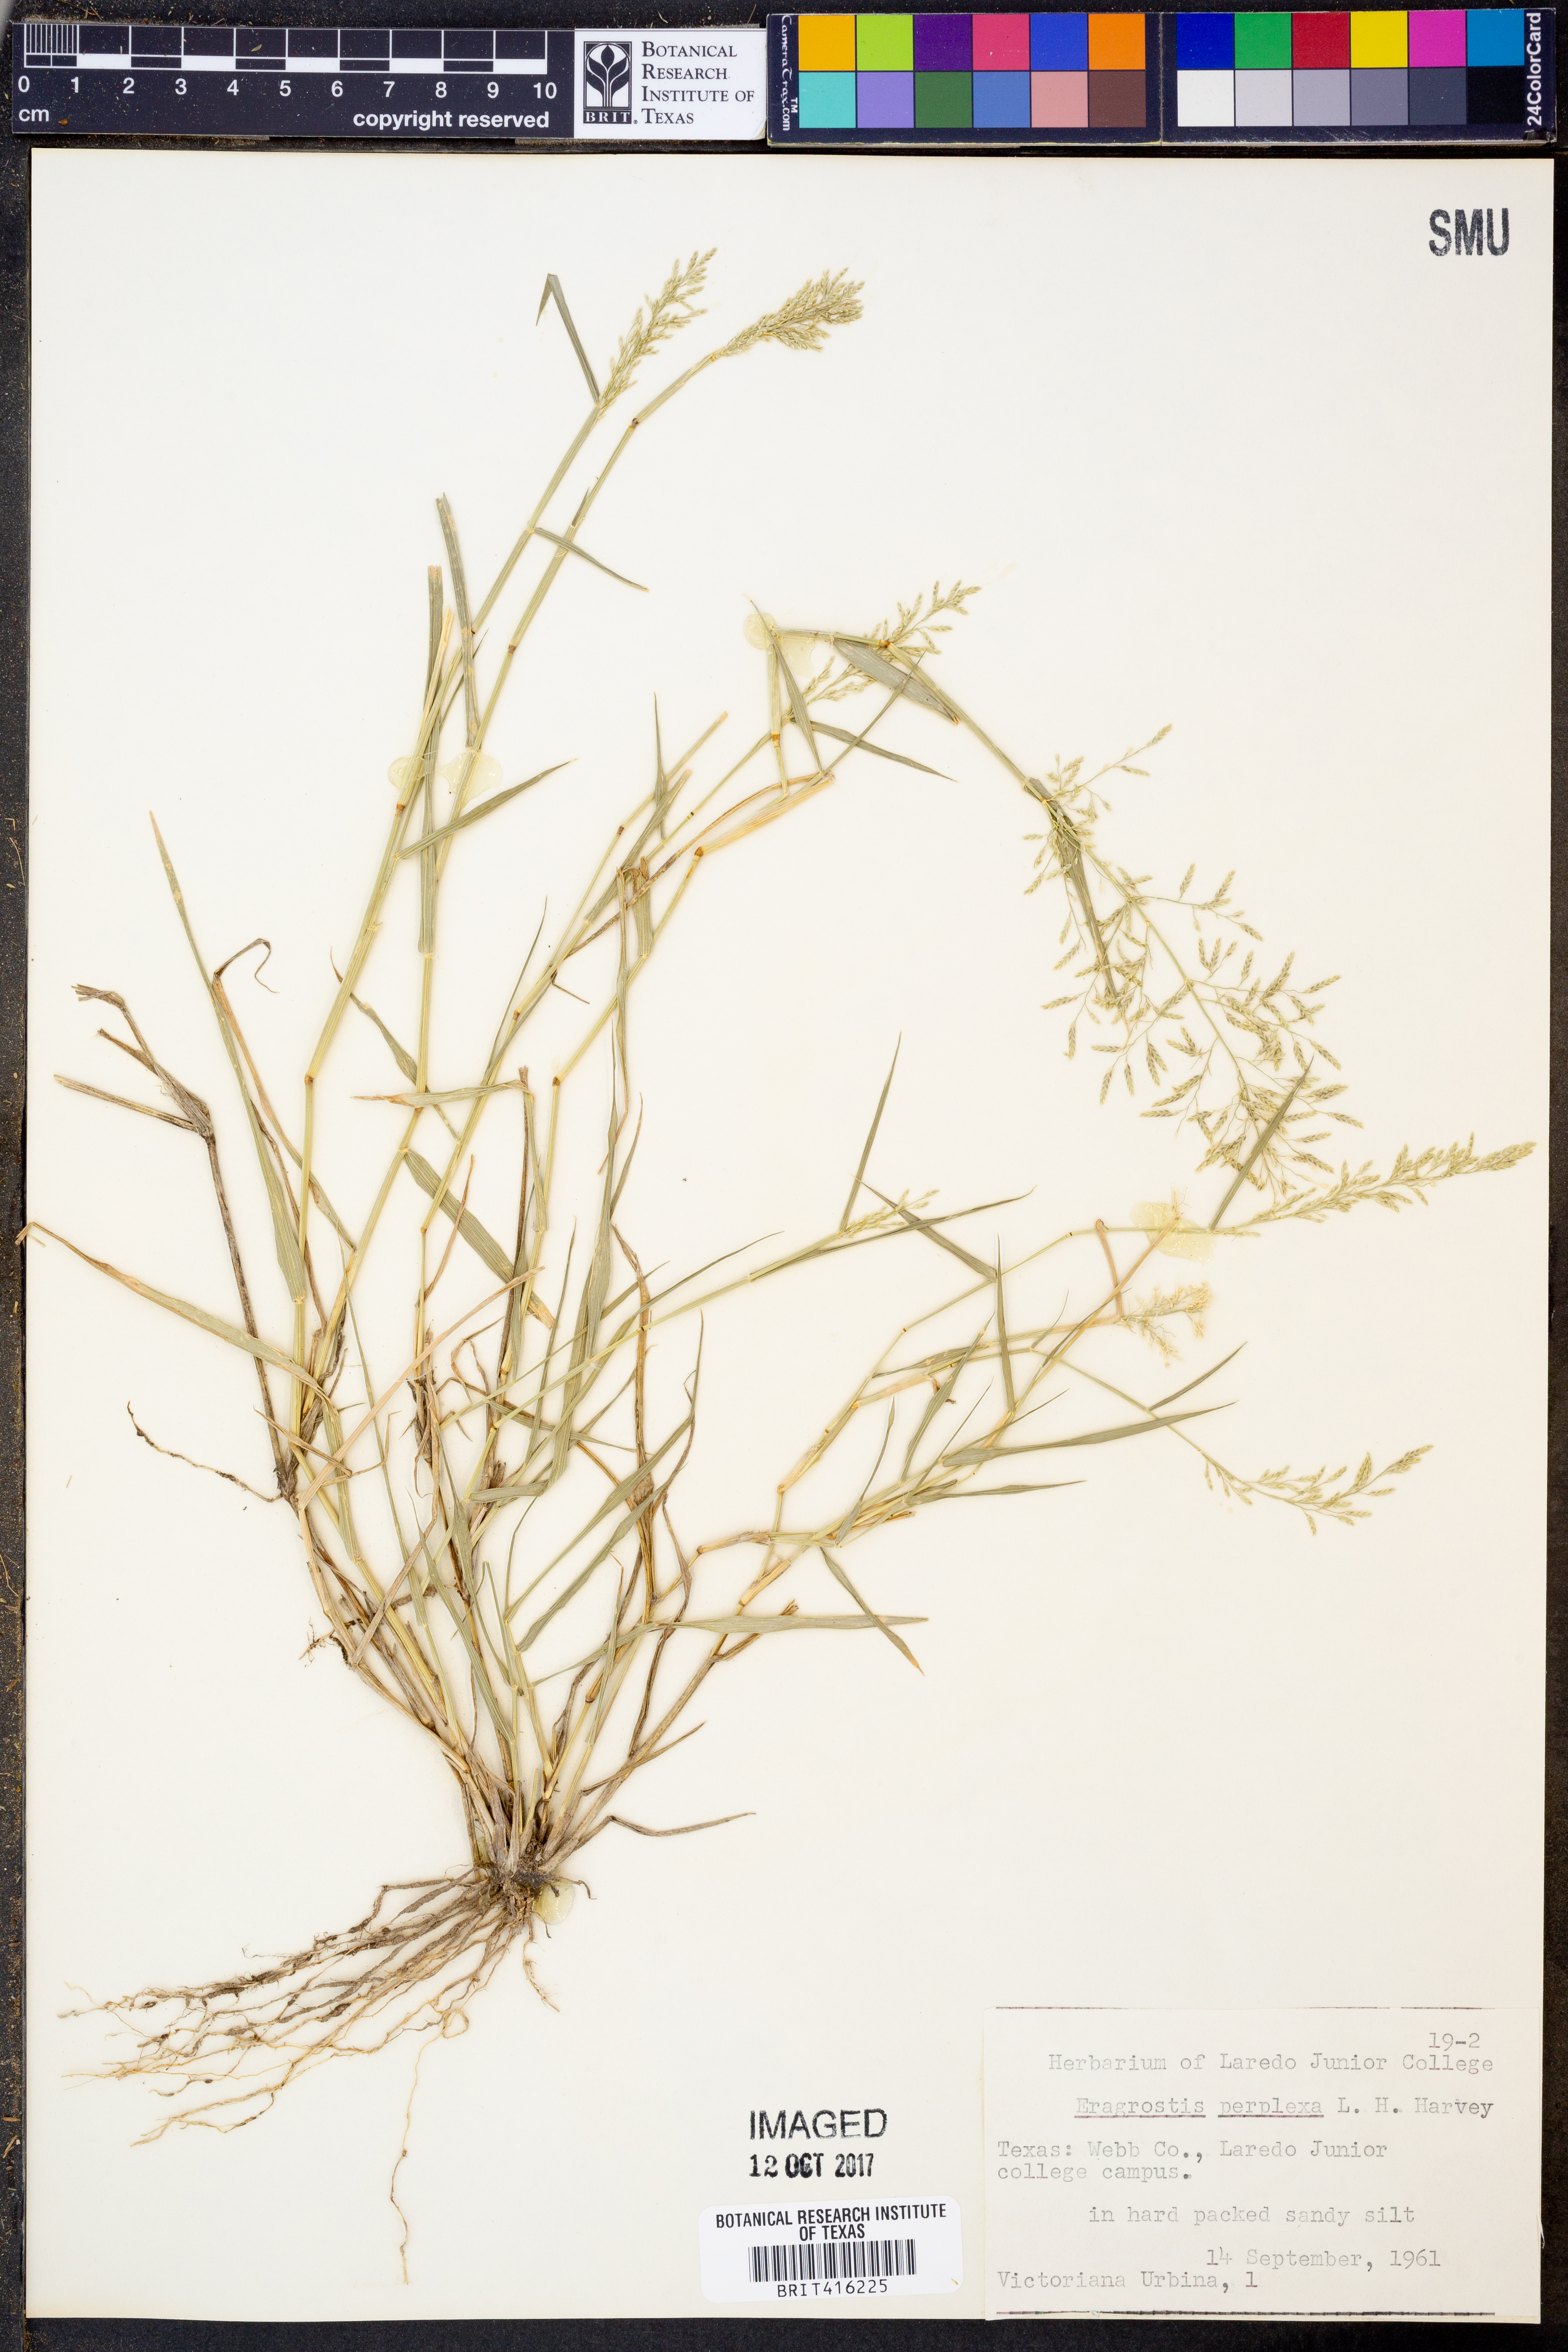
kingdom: Plantae
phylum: Tracheophyta
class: Liliopsida
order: Poales
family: Poaceae
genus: Eragrostis
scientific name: Eragrostis perplexa
